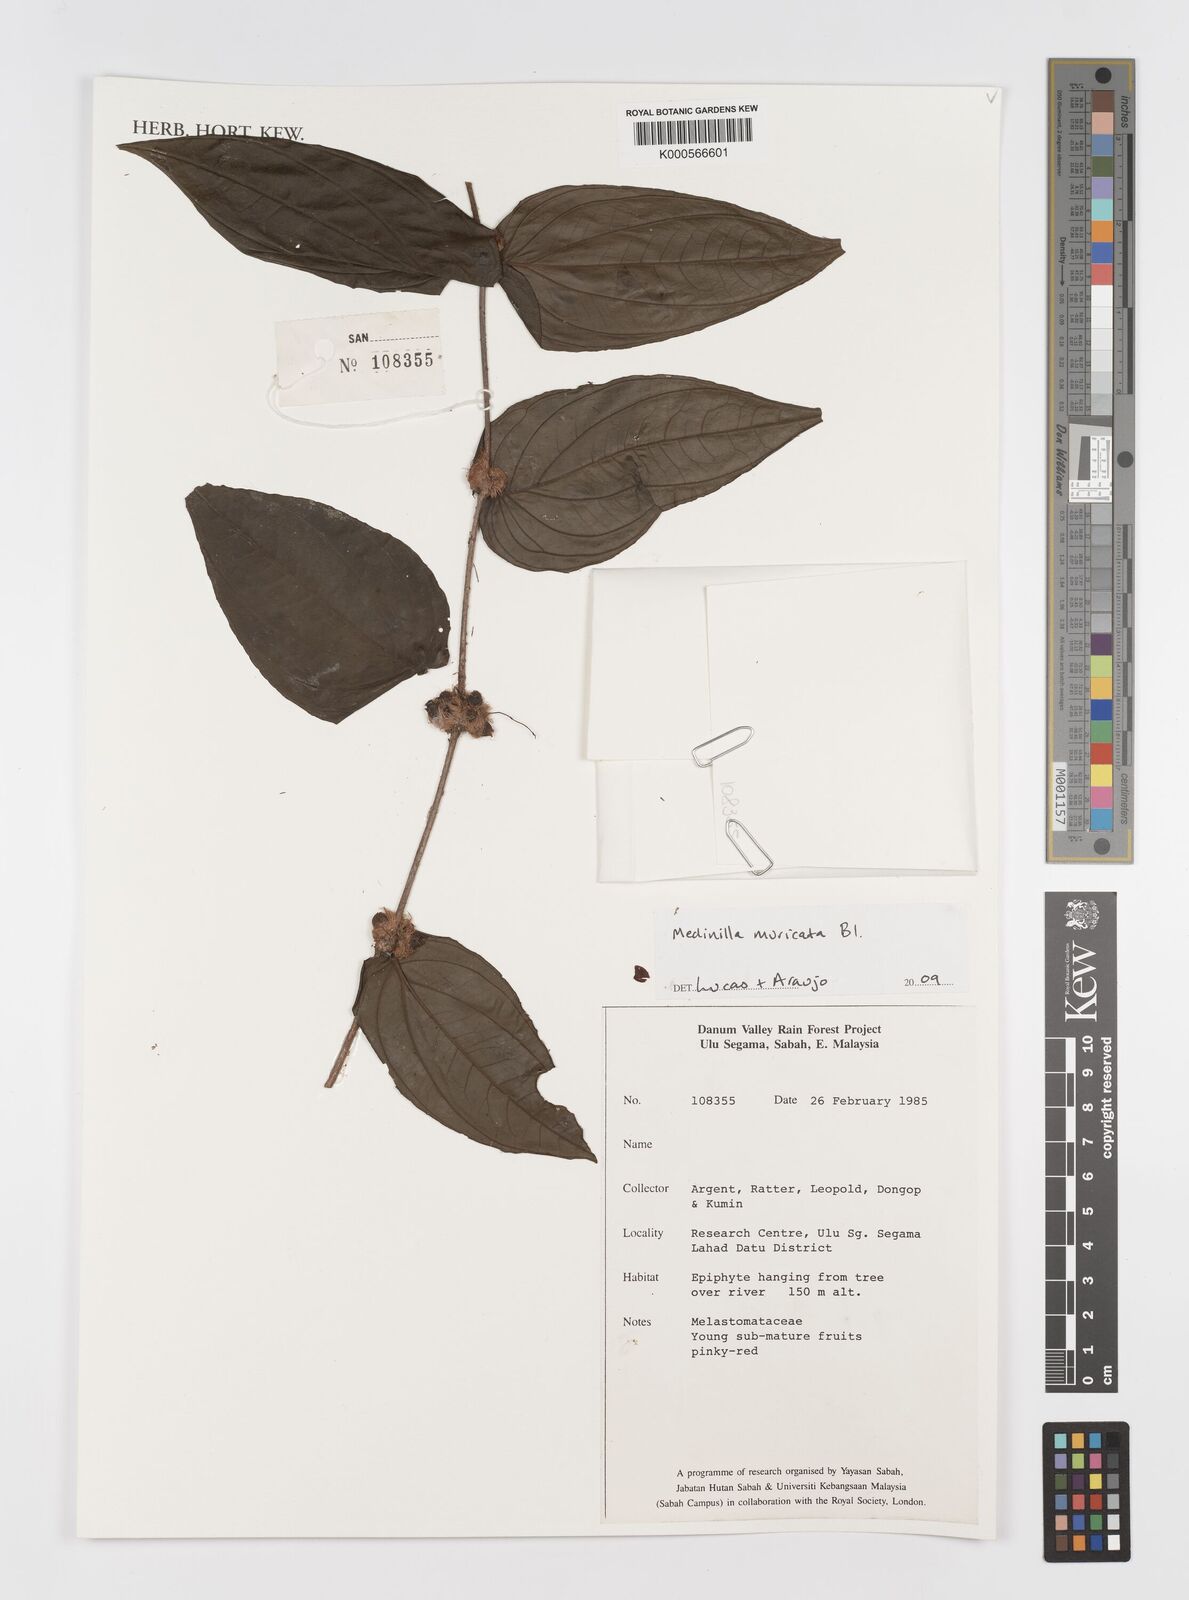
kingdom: Plantae
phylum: Tracheophyta
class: Magnoliopsida
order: Myrtales
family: Melastomataceae
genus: Medinilla
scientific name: Medinilla muricata
